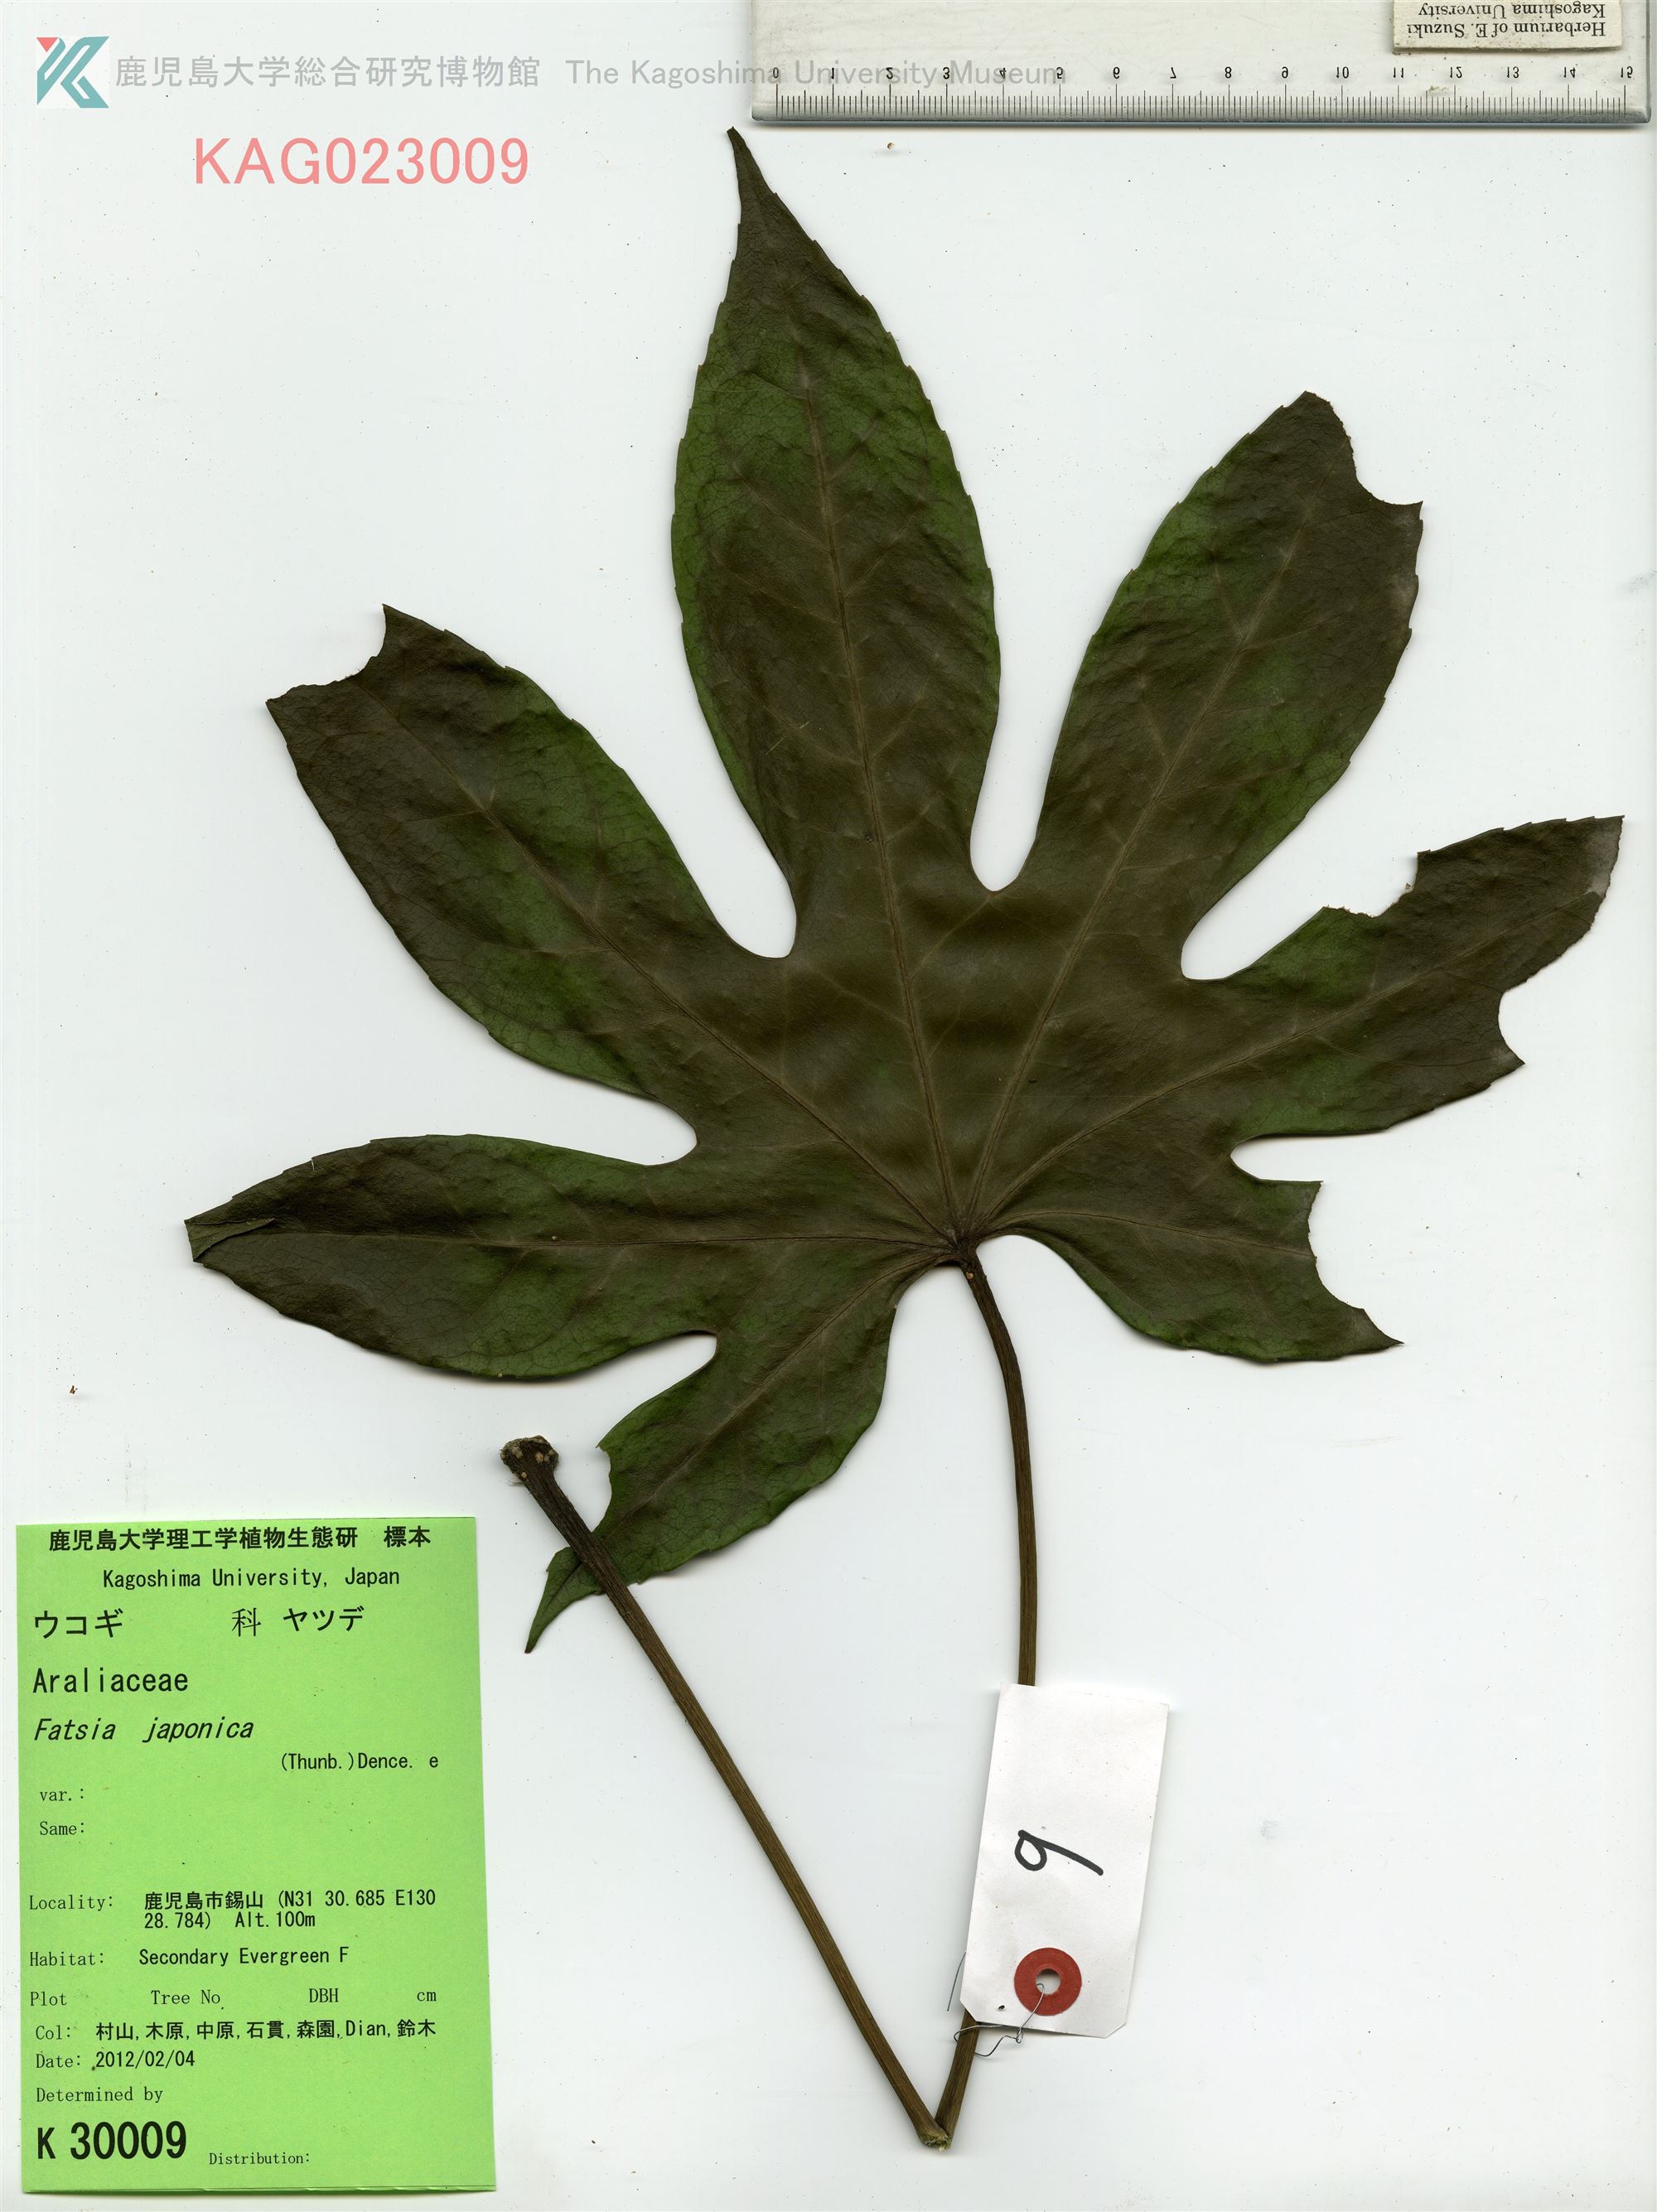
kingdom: Plantae
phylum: Tracheophyta
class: Magnoliopsida
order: Apiales
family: Araliaceae
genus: Fatsia
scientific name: Fatsia japonica
